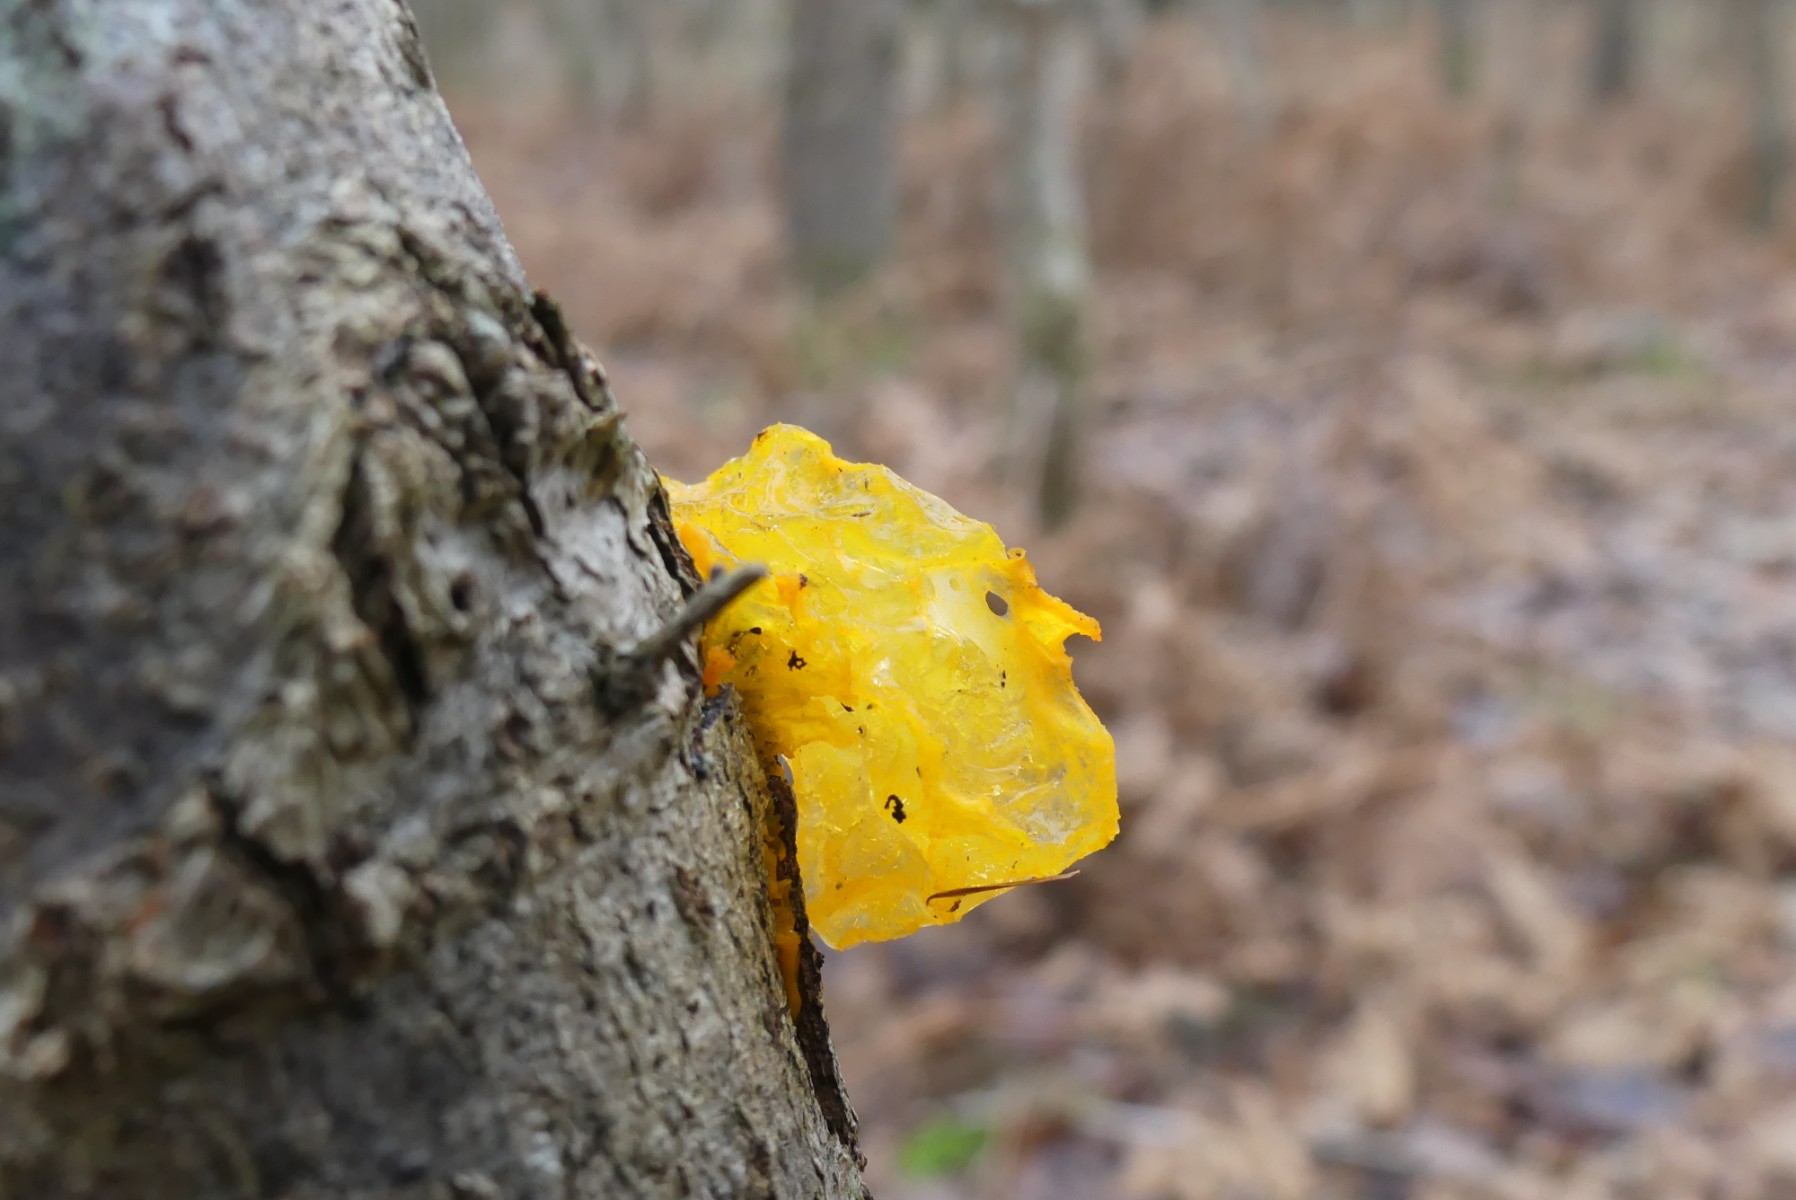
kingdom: Fungi
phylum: Basidiomycota
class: Tremellomycetes
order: Tremellales
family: Tremellaceae
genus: Tremella
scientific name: Tremella mesenterica
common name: gul bævresvamp
